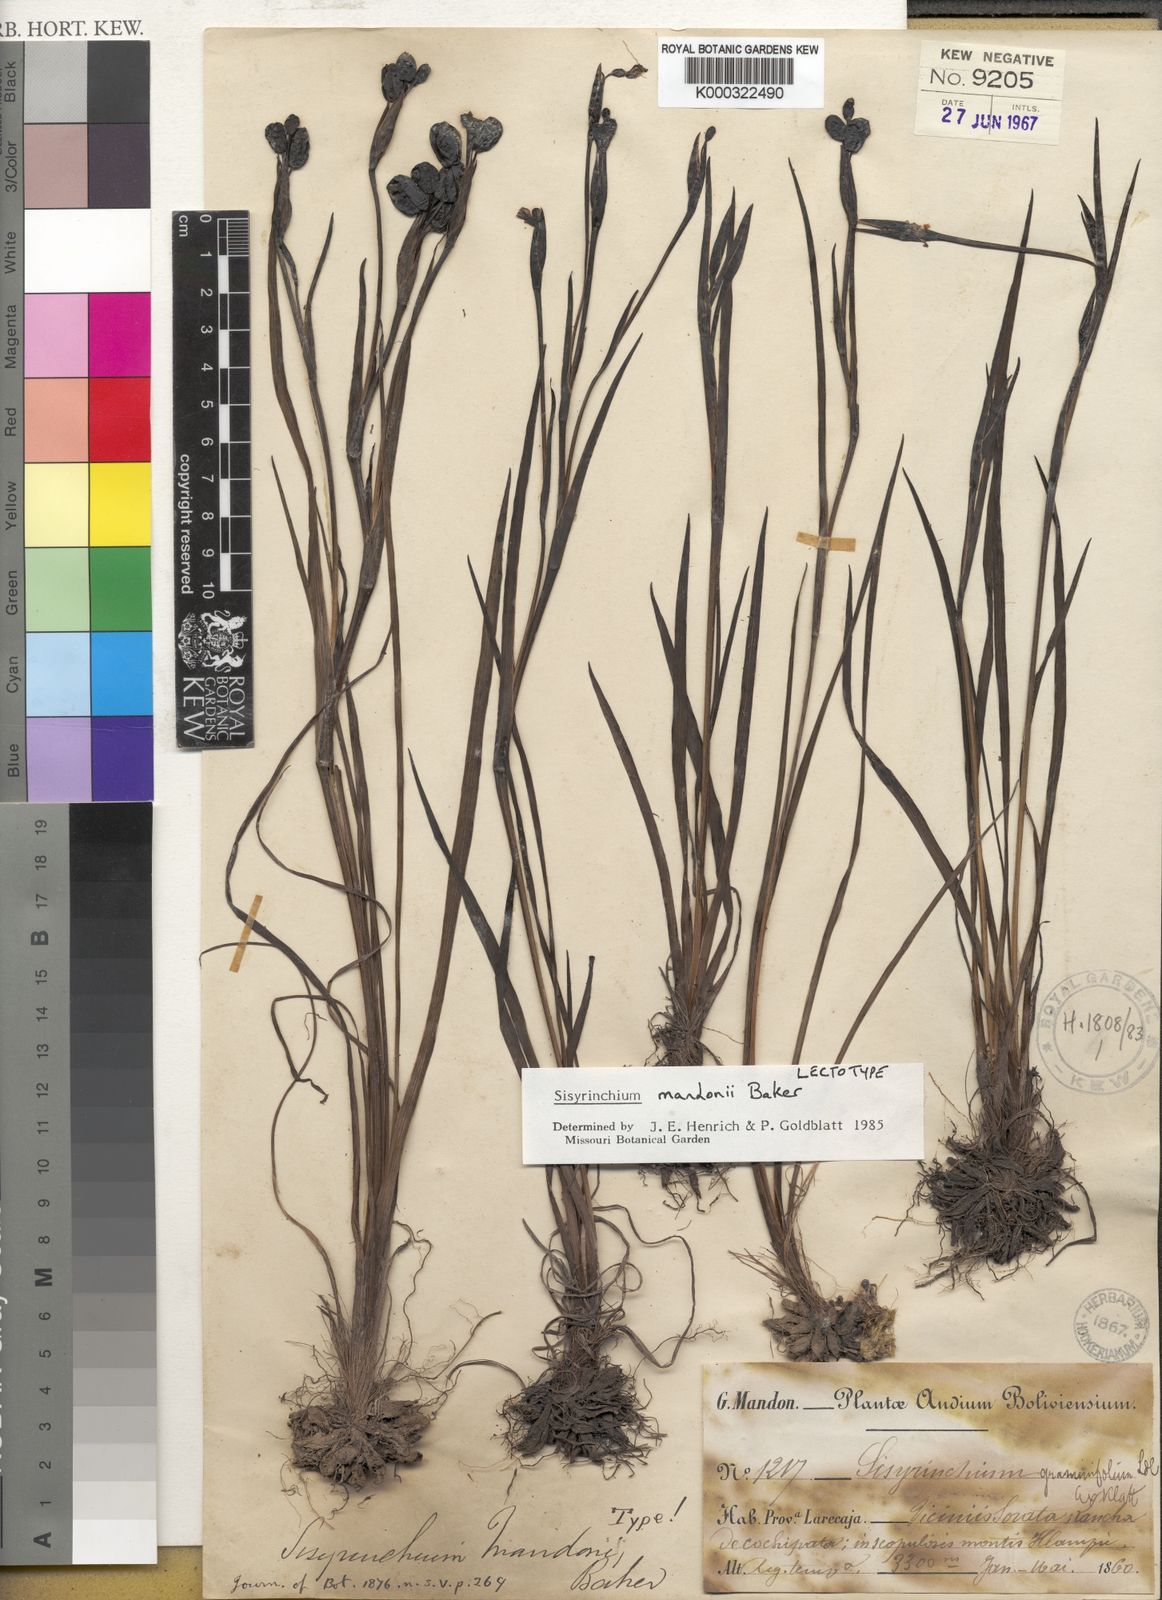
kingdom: Plantae
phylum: Tracheophyta
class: Liliopsida
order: Asparagales
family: Iridaceae
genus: Sisyrinchium
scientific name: Sisyrinchium mandonii
